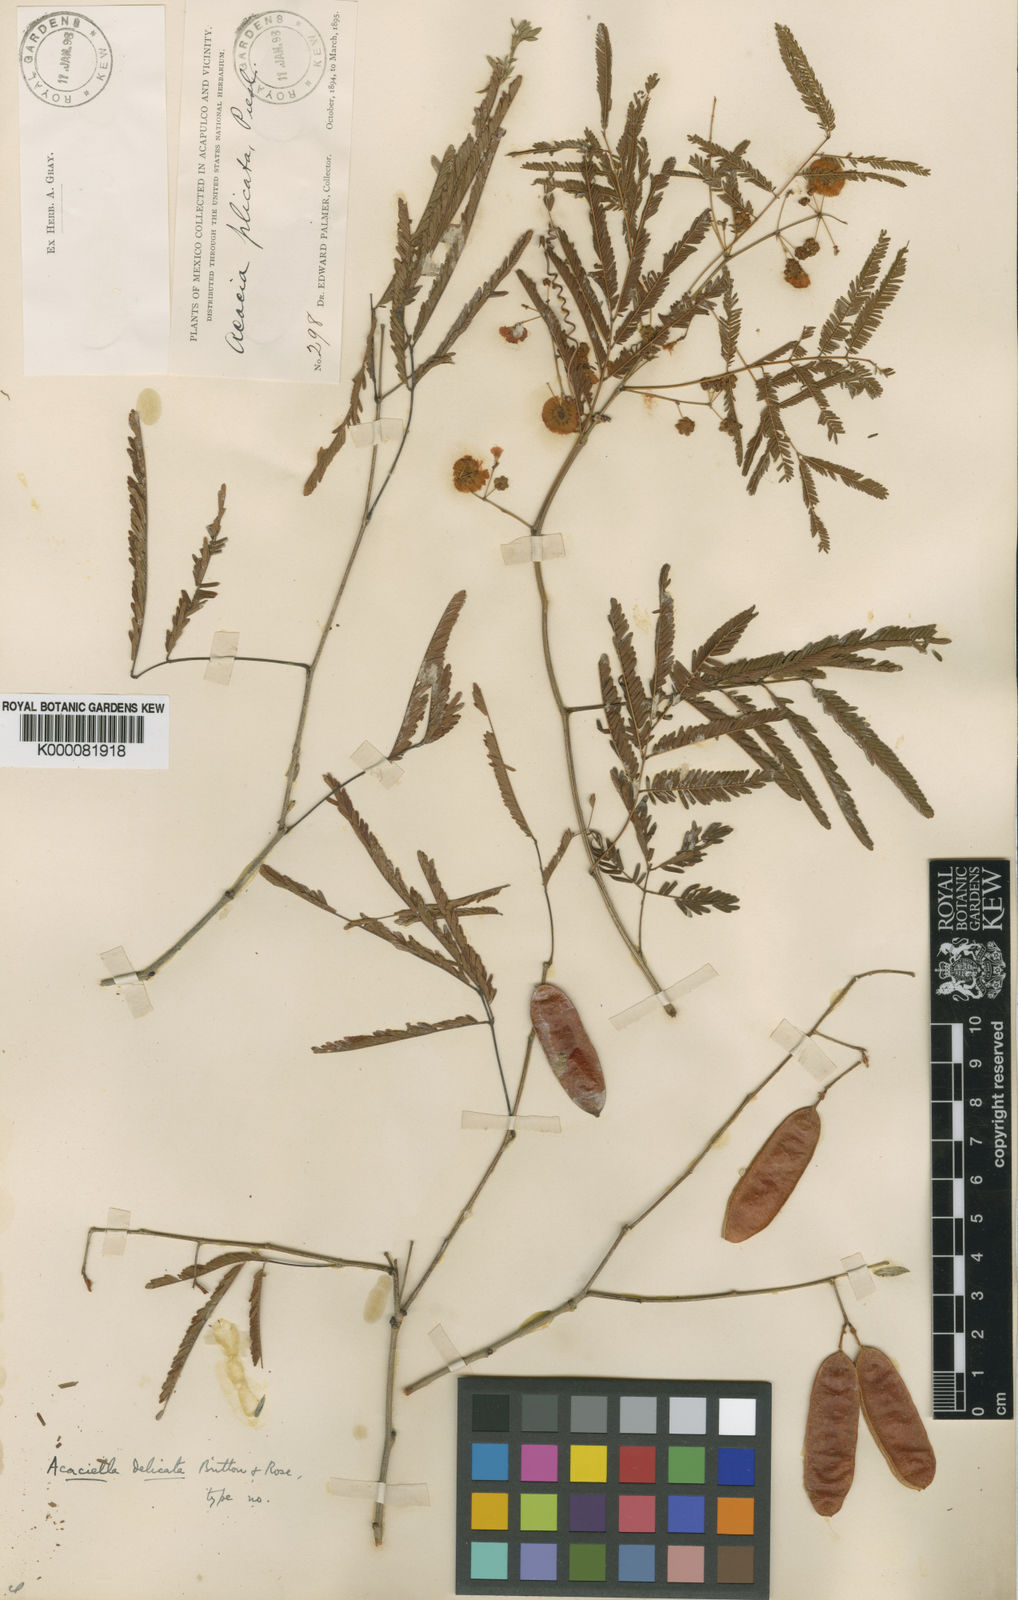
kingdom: Plantae
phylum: Tracheophyta
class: Magnoliopsida
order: Fabales
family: Fabaceae
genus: Acaciella
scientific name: Acaciella angustissima
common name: Prairie acacia
